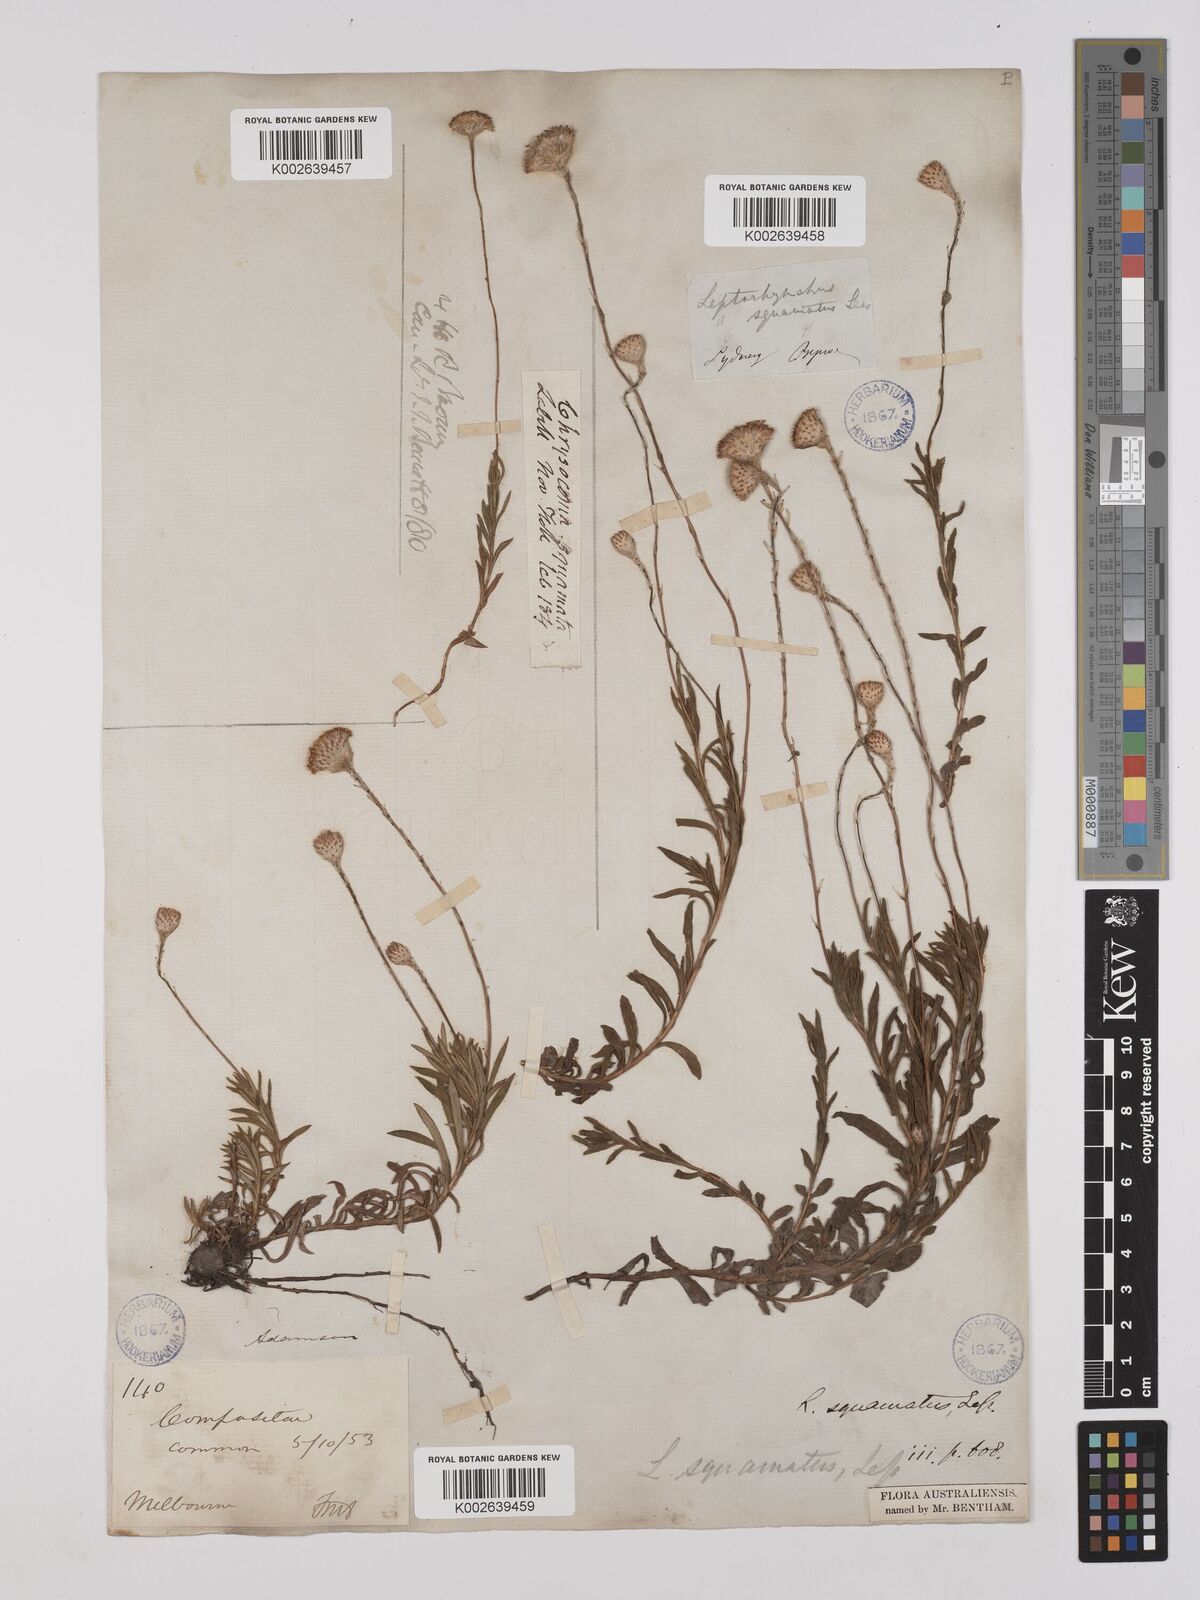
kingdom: Plantae
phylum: Tracheophyta
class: Magnoliopsida
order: Asterales
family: Asteraceae
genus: Leptorhynchos
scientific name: Leptorhynchos squamatus
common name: Scaly-buttons
